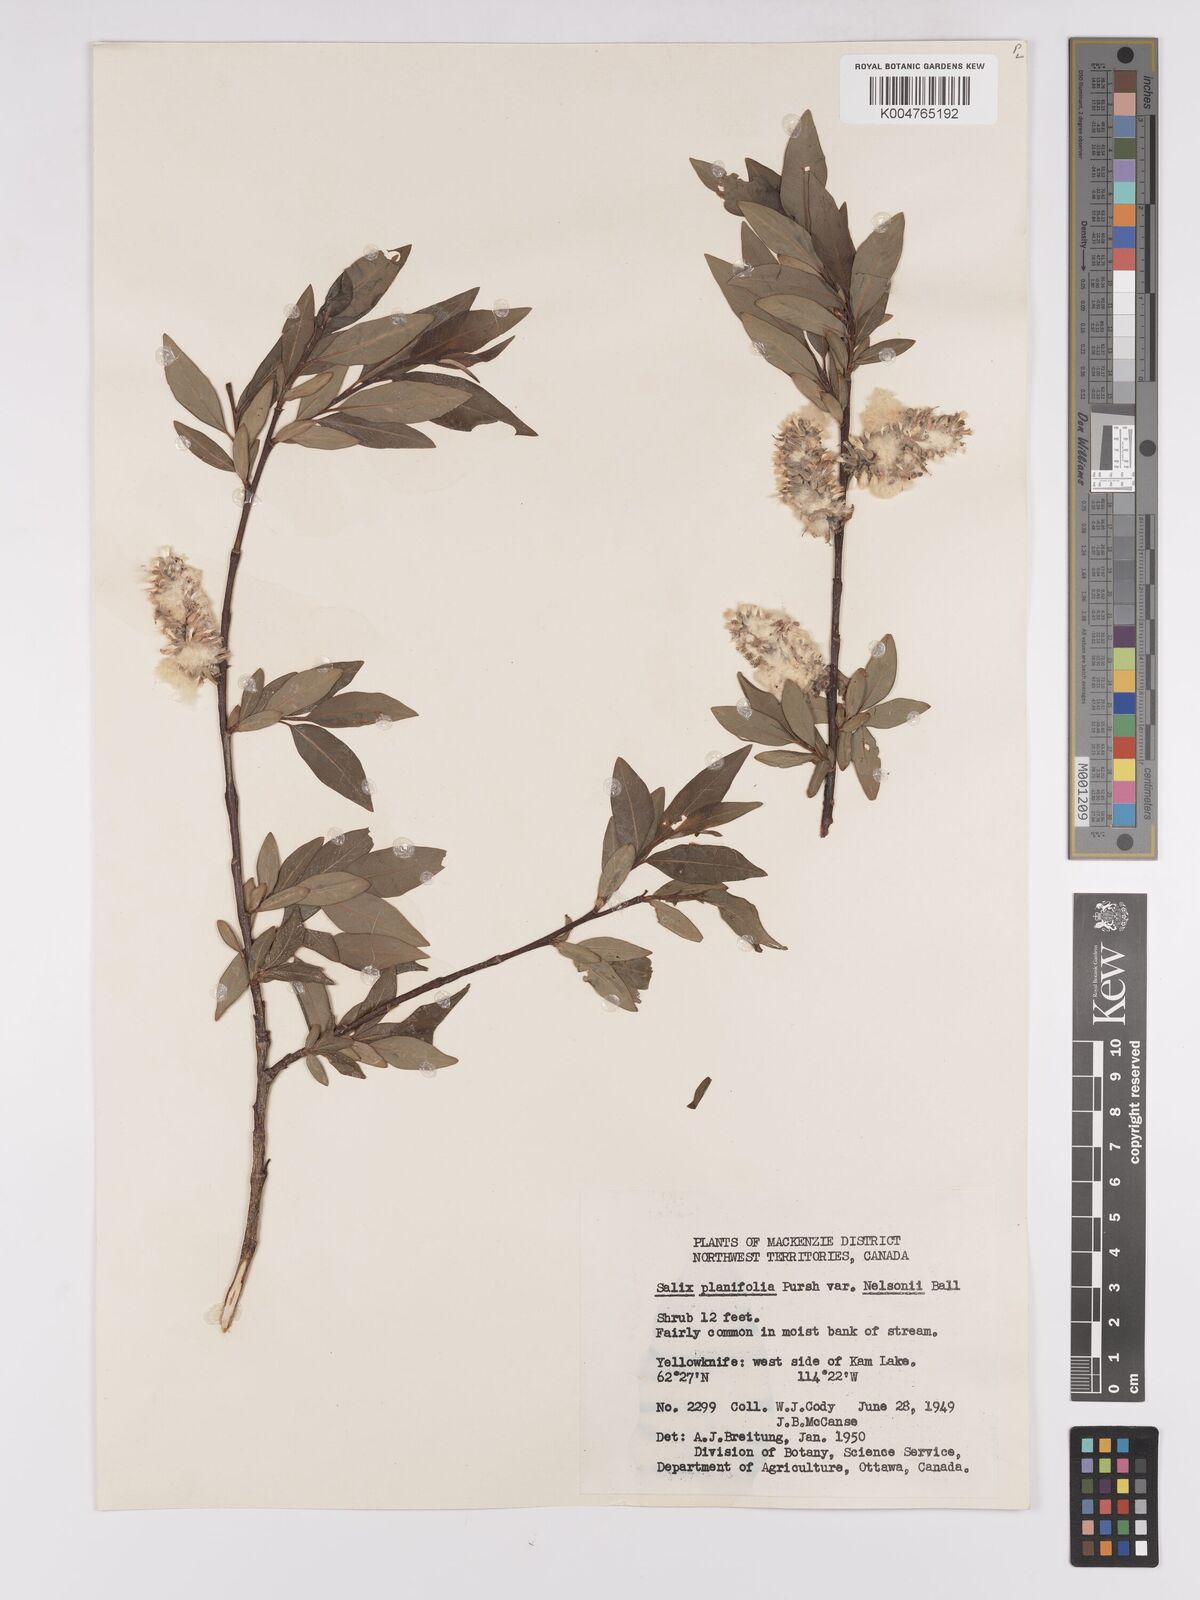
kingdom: Plantae
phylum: Tracheophyta
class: Magnoliopsida
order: Malpighiales
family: Salicaceae
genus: Salix
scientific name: Salix planifolia
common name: Mountain willow
